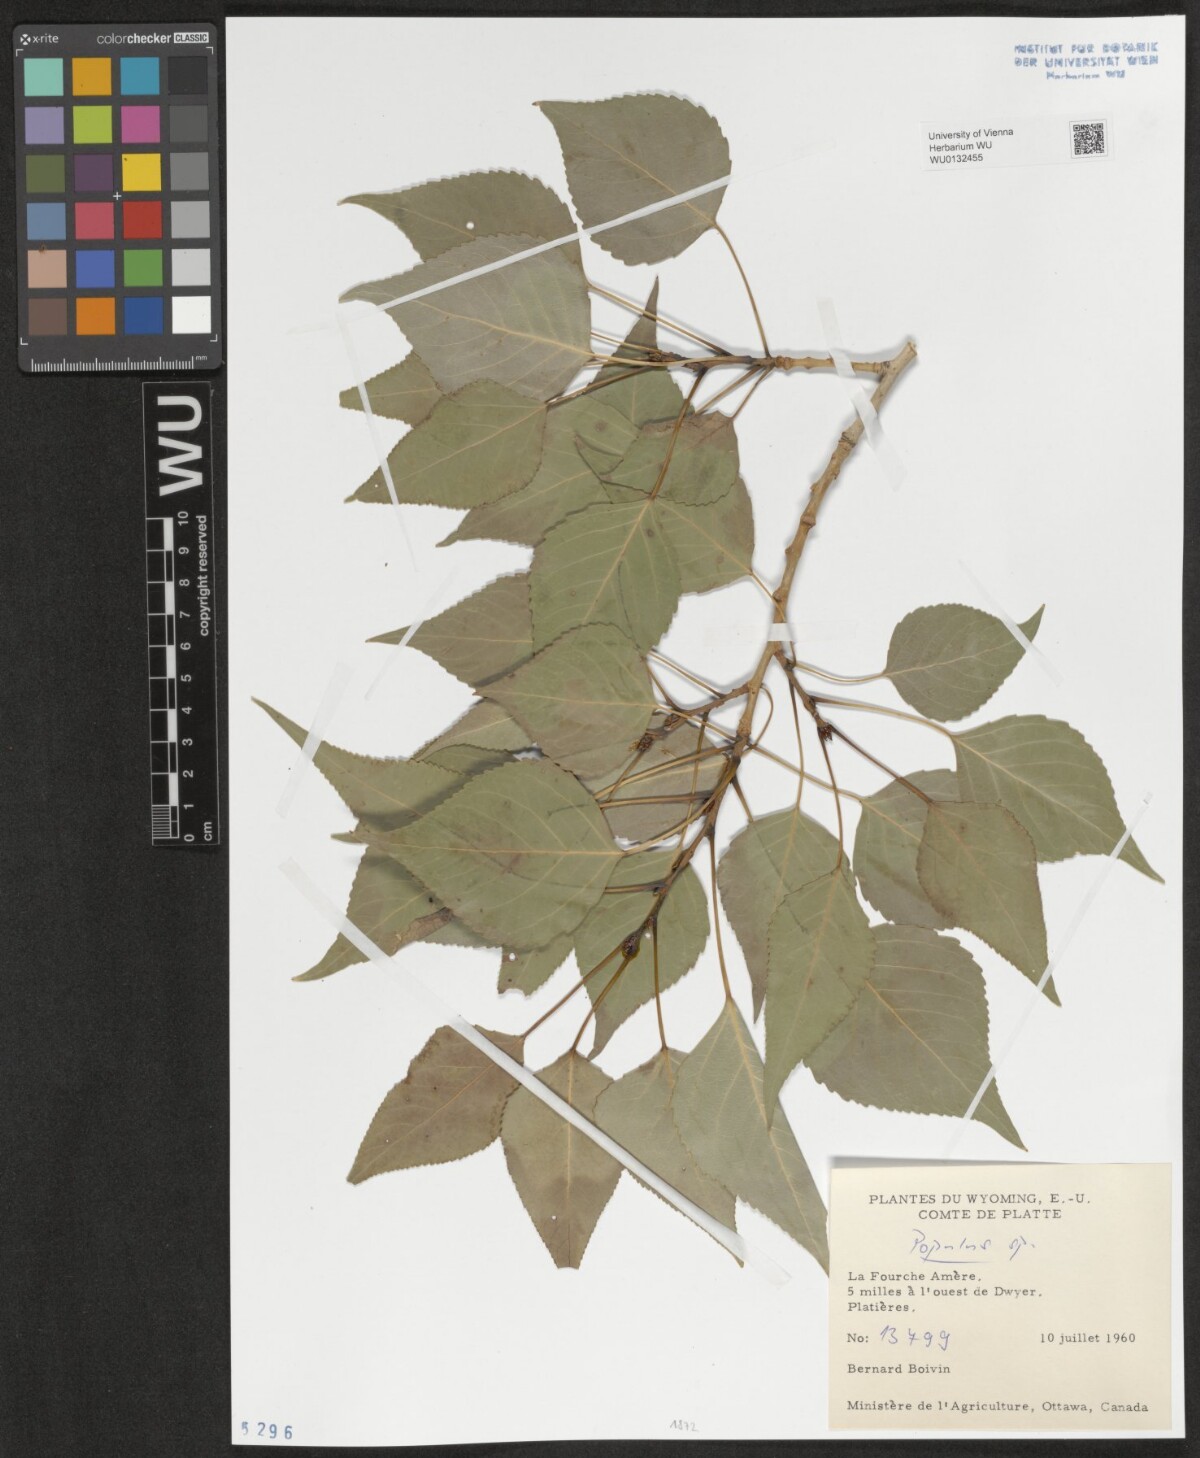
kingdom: Plantae
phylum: Tracheophyta
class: Magnoliopsida
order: Malpighiales
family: Salicaceae
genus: Populus
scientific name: Populus
